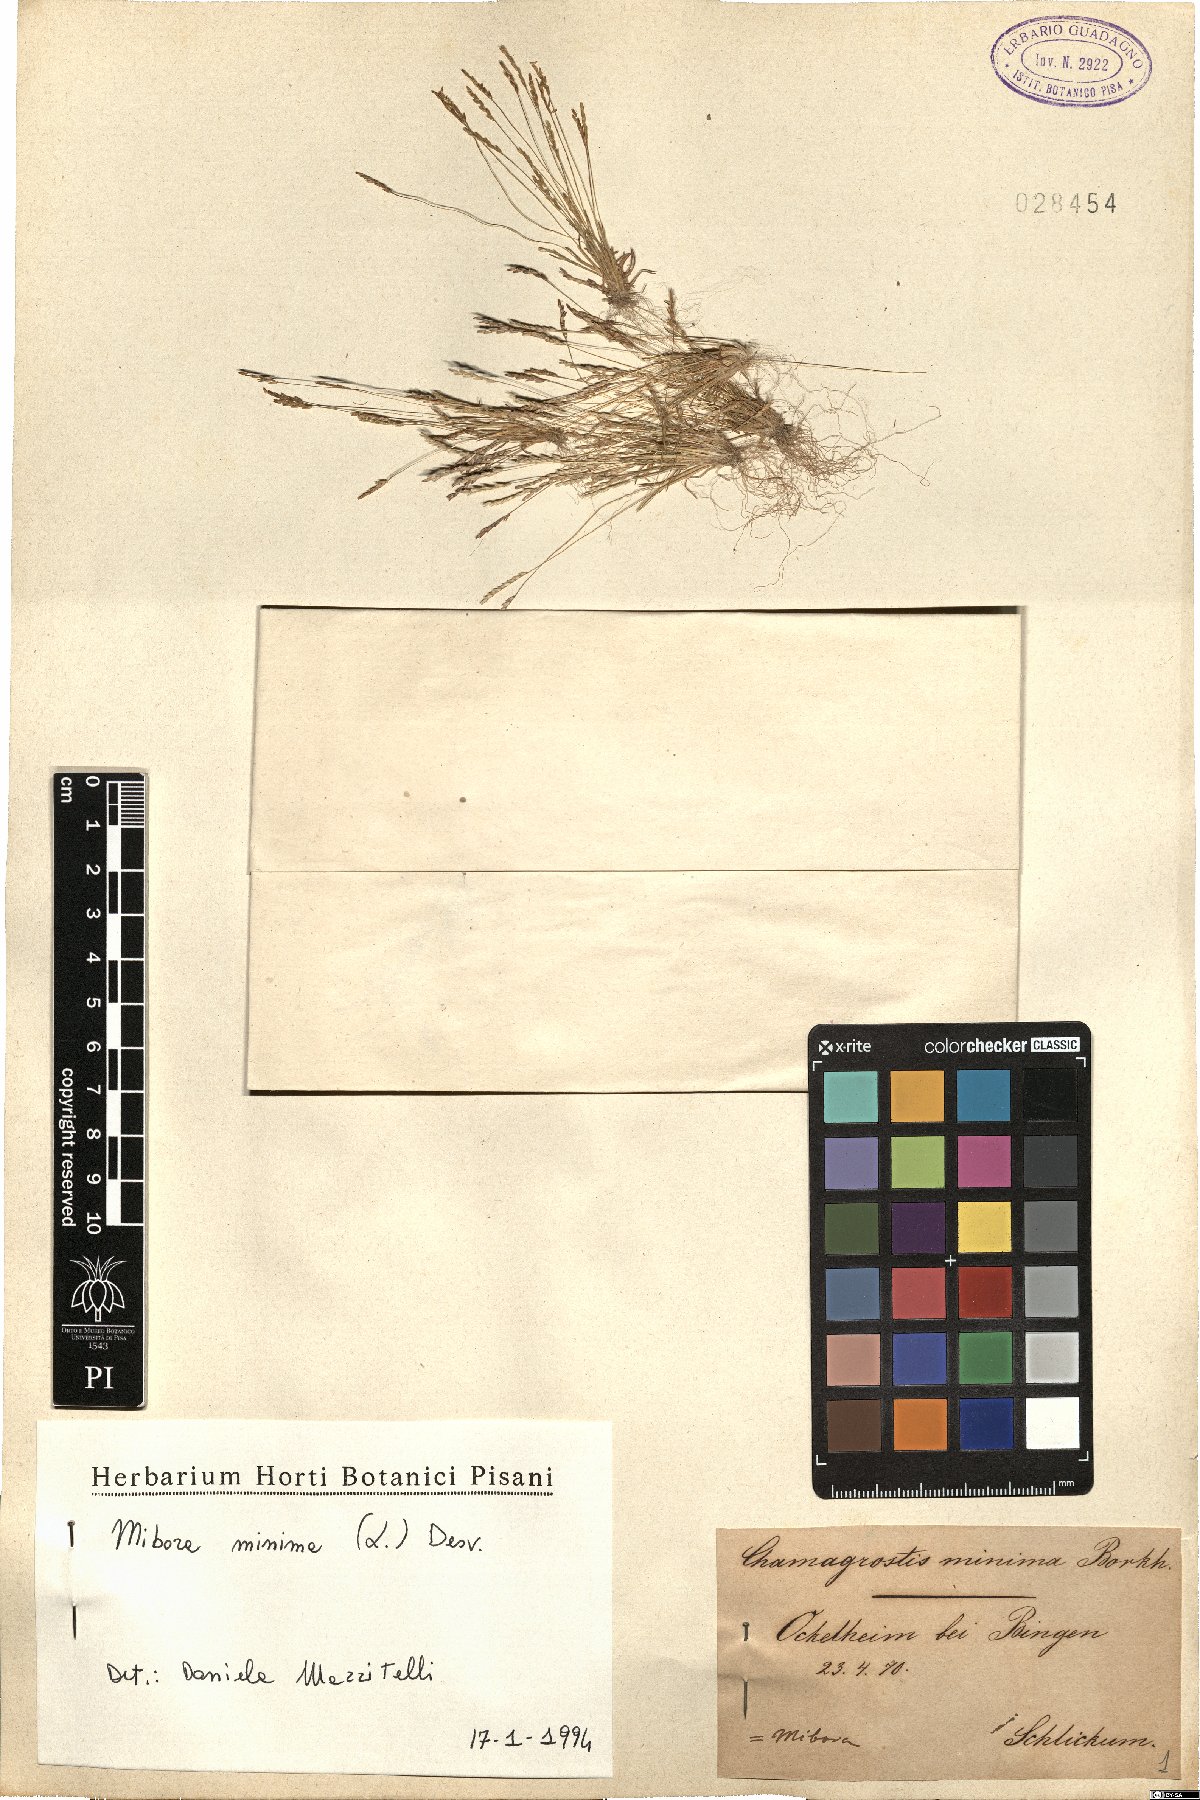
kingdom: Plantae
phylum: Tracheophyta
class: Liliopsida
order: Poales
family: Poaceae
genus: Mibora
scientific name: Mibora minima
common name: Early sand-grass
